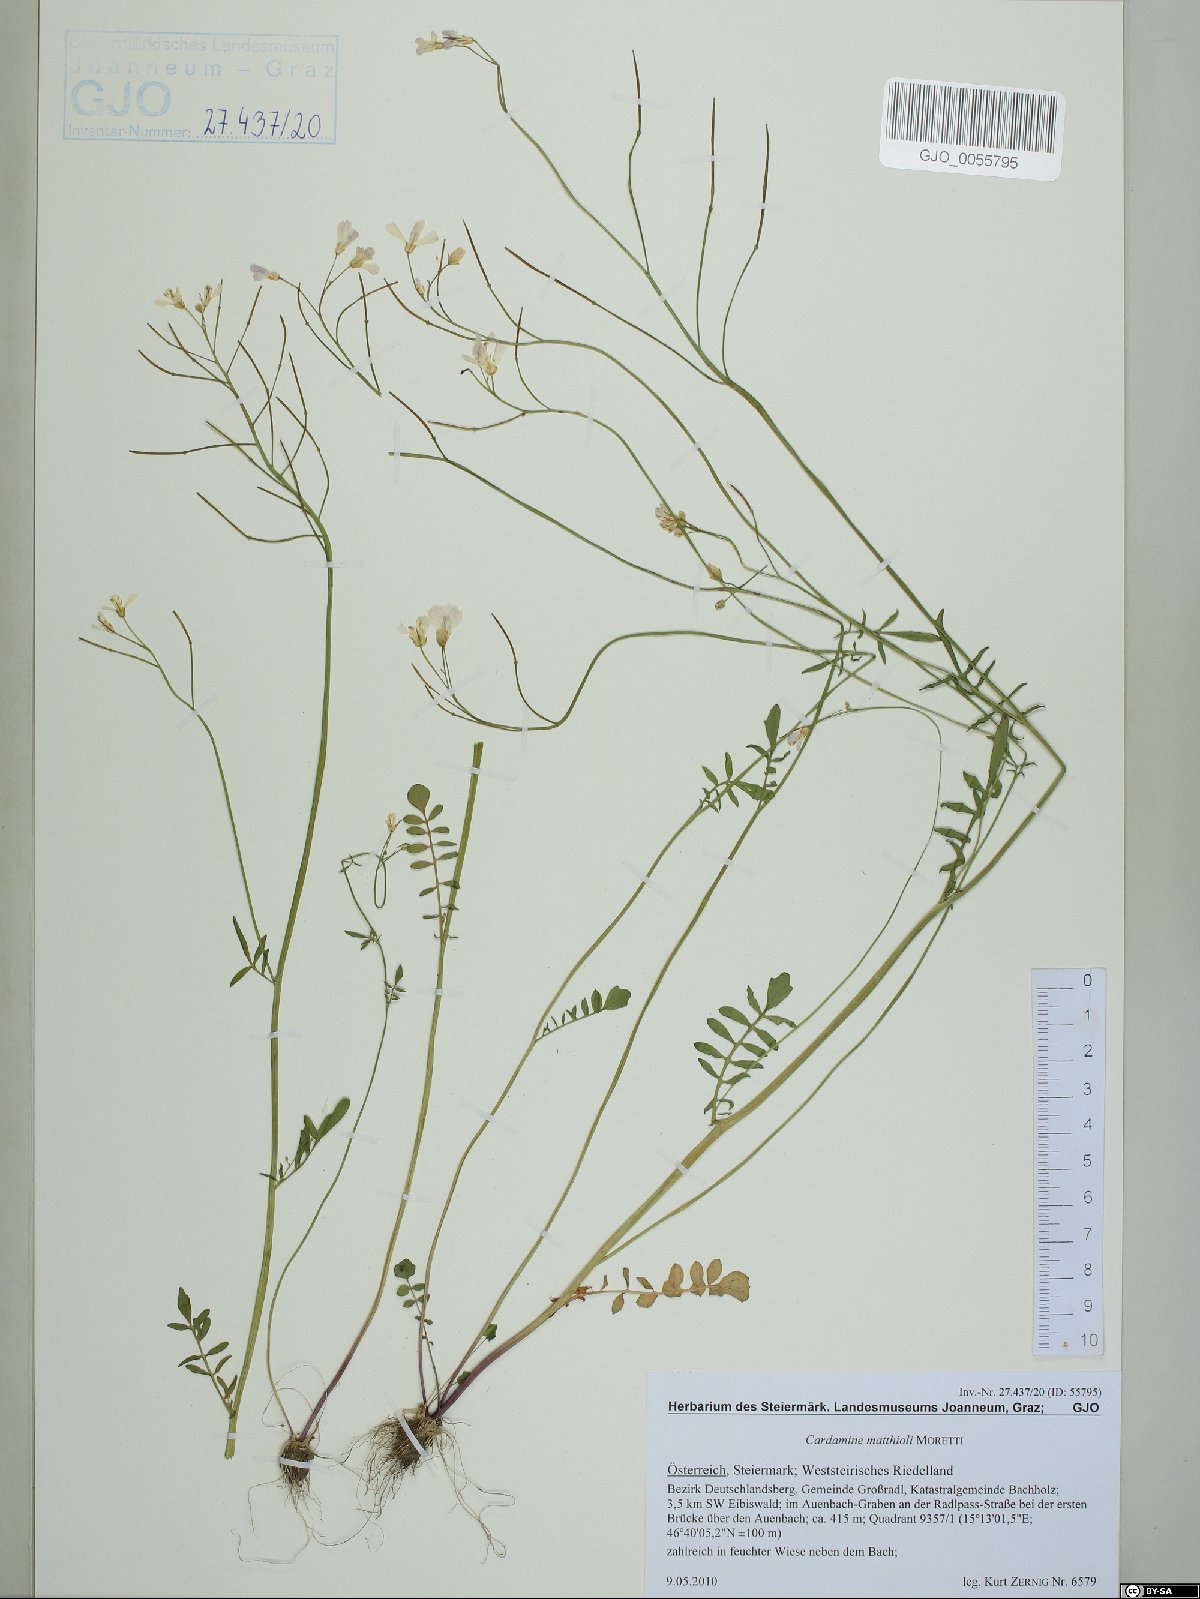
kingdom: Plantae
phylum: Tracheophyta
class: Magnoliopsida
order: Brassicales
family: Brassicaceae
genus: Cardamine
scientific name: Cardamine matthioli
